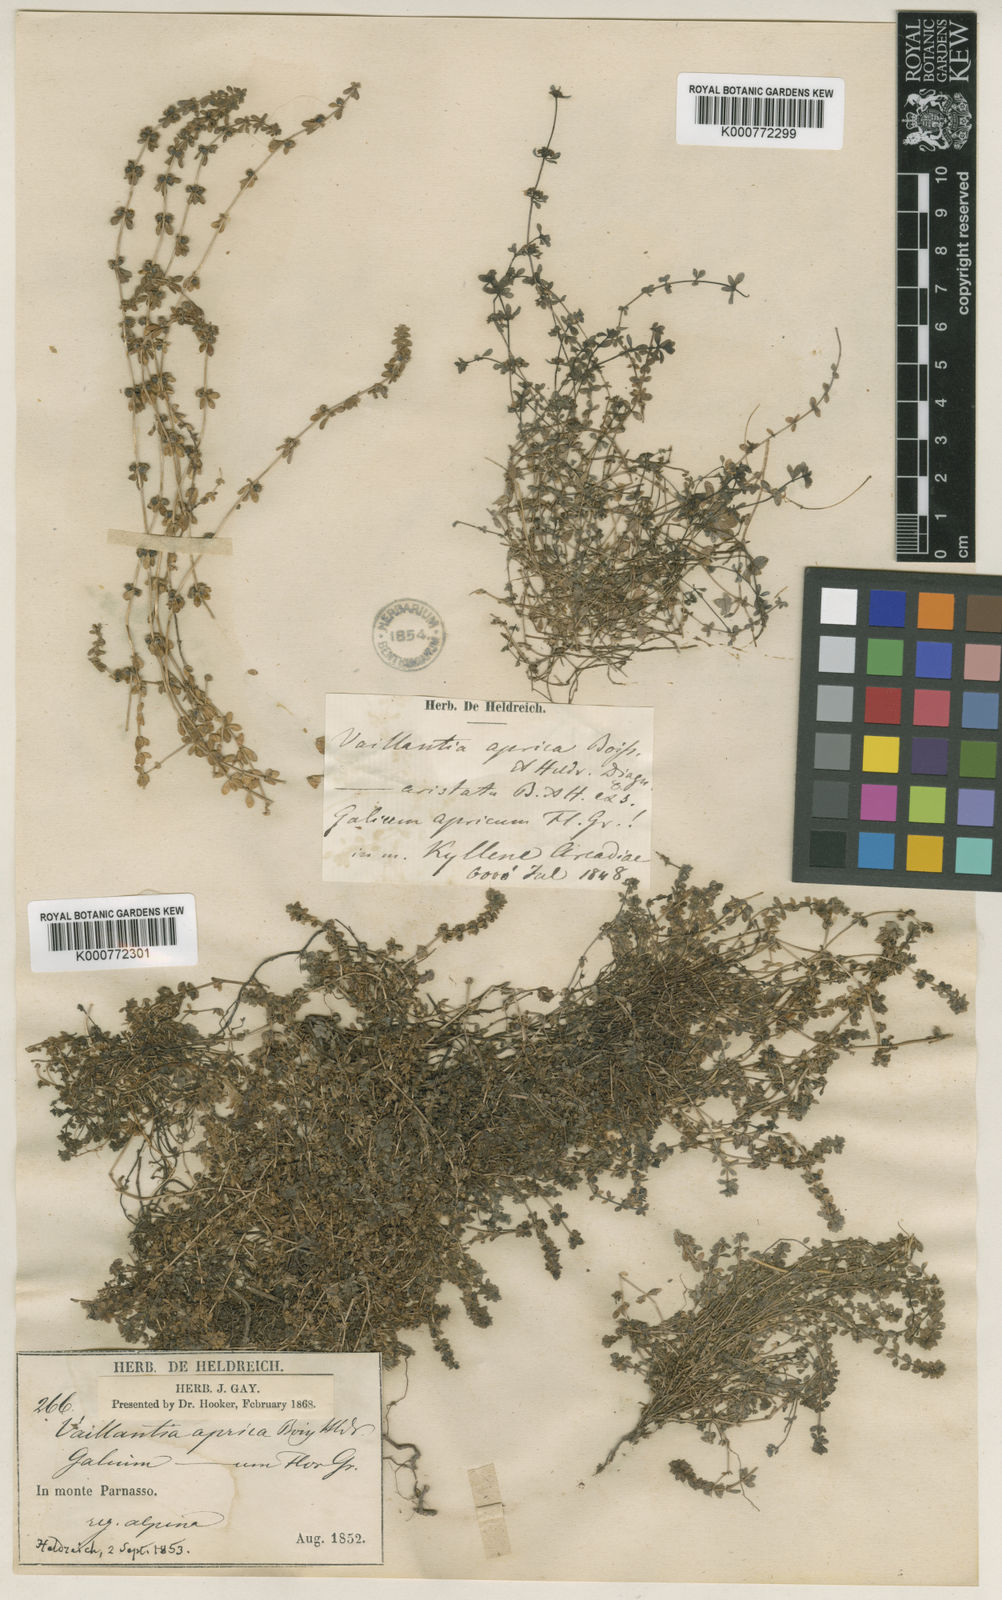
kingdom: Plantae
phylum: Tracheophyta
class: Magnoliopsida
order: Gentianales
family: Rubiaceae
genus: Valantia
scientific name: Valantia
